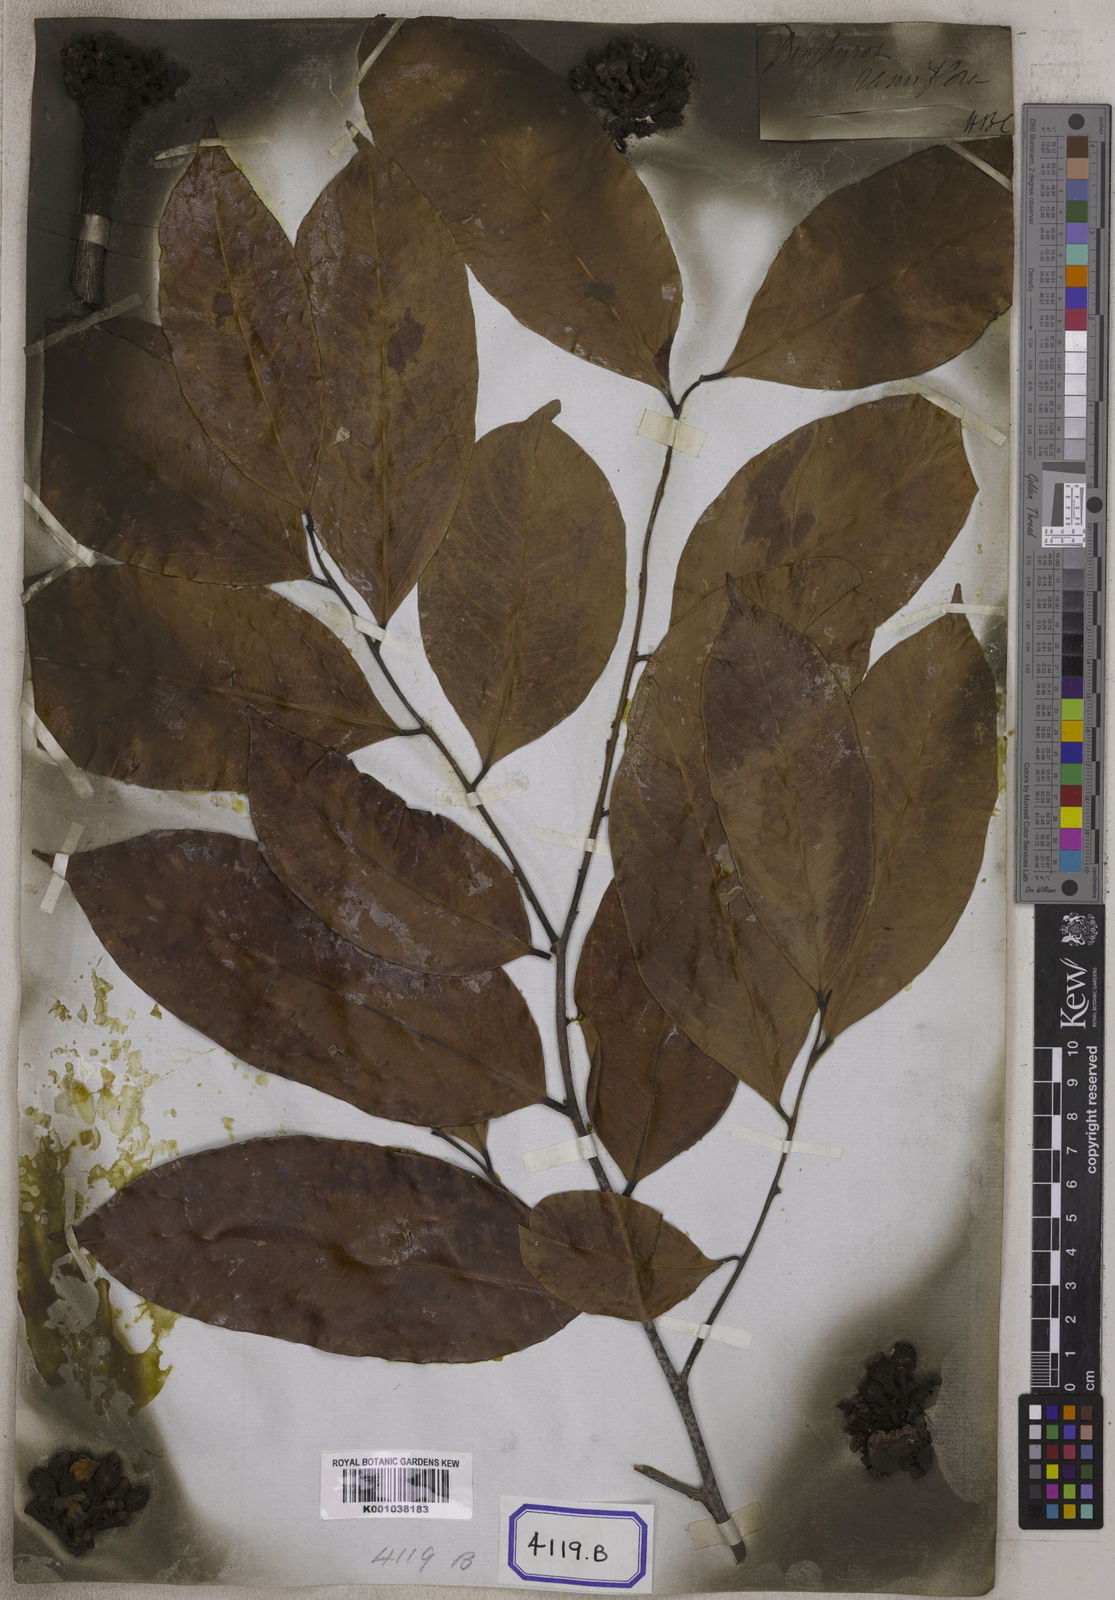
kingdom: Plantae
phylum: Tracheophyta
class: Magnoliopsida
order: Ericales
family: Ebenaceae
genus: Diospyros
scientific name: Diospyros ramiflora
